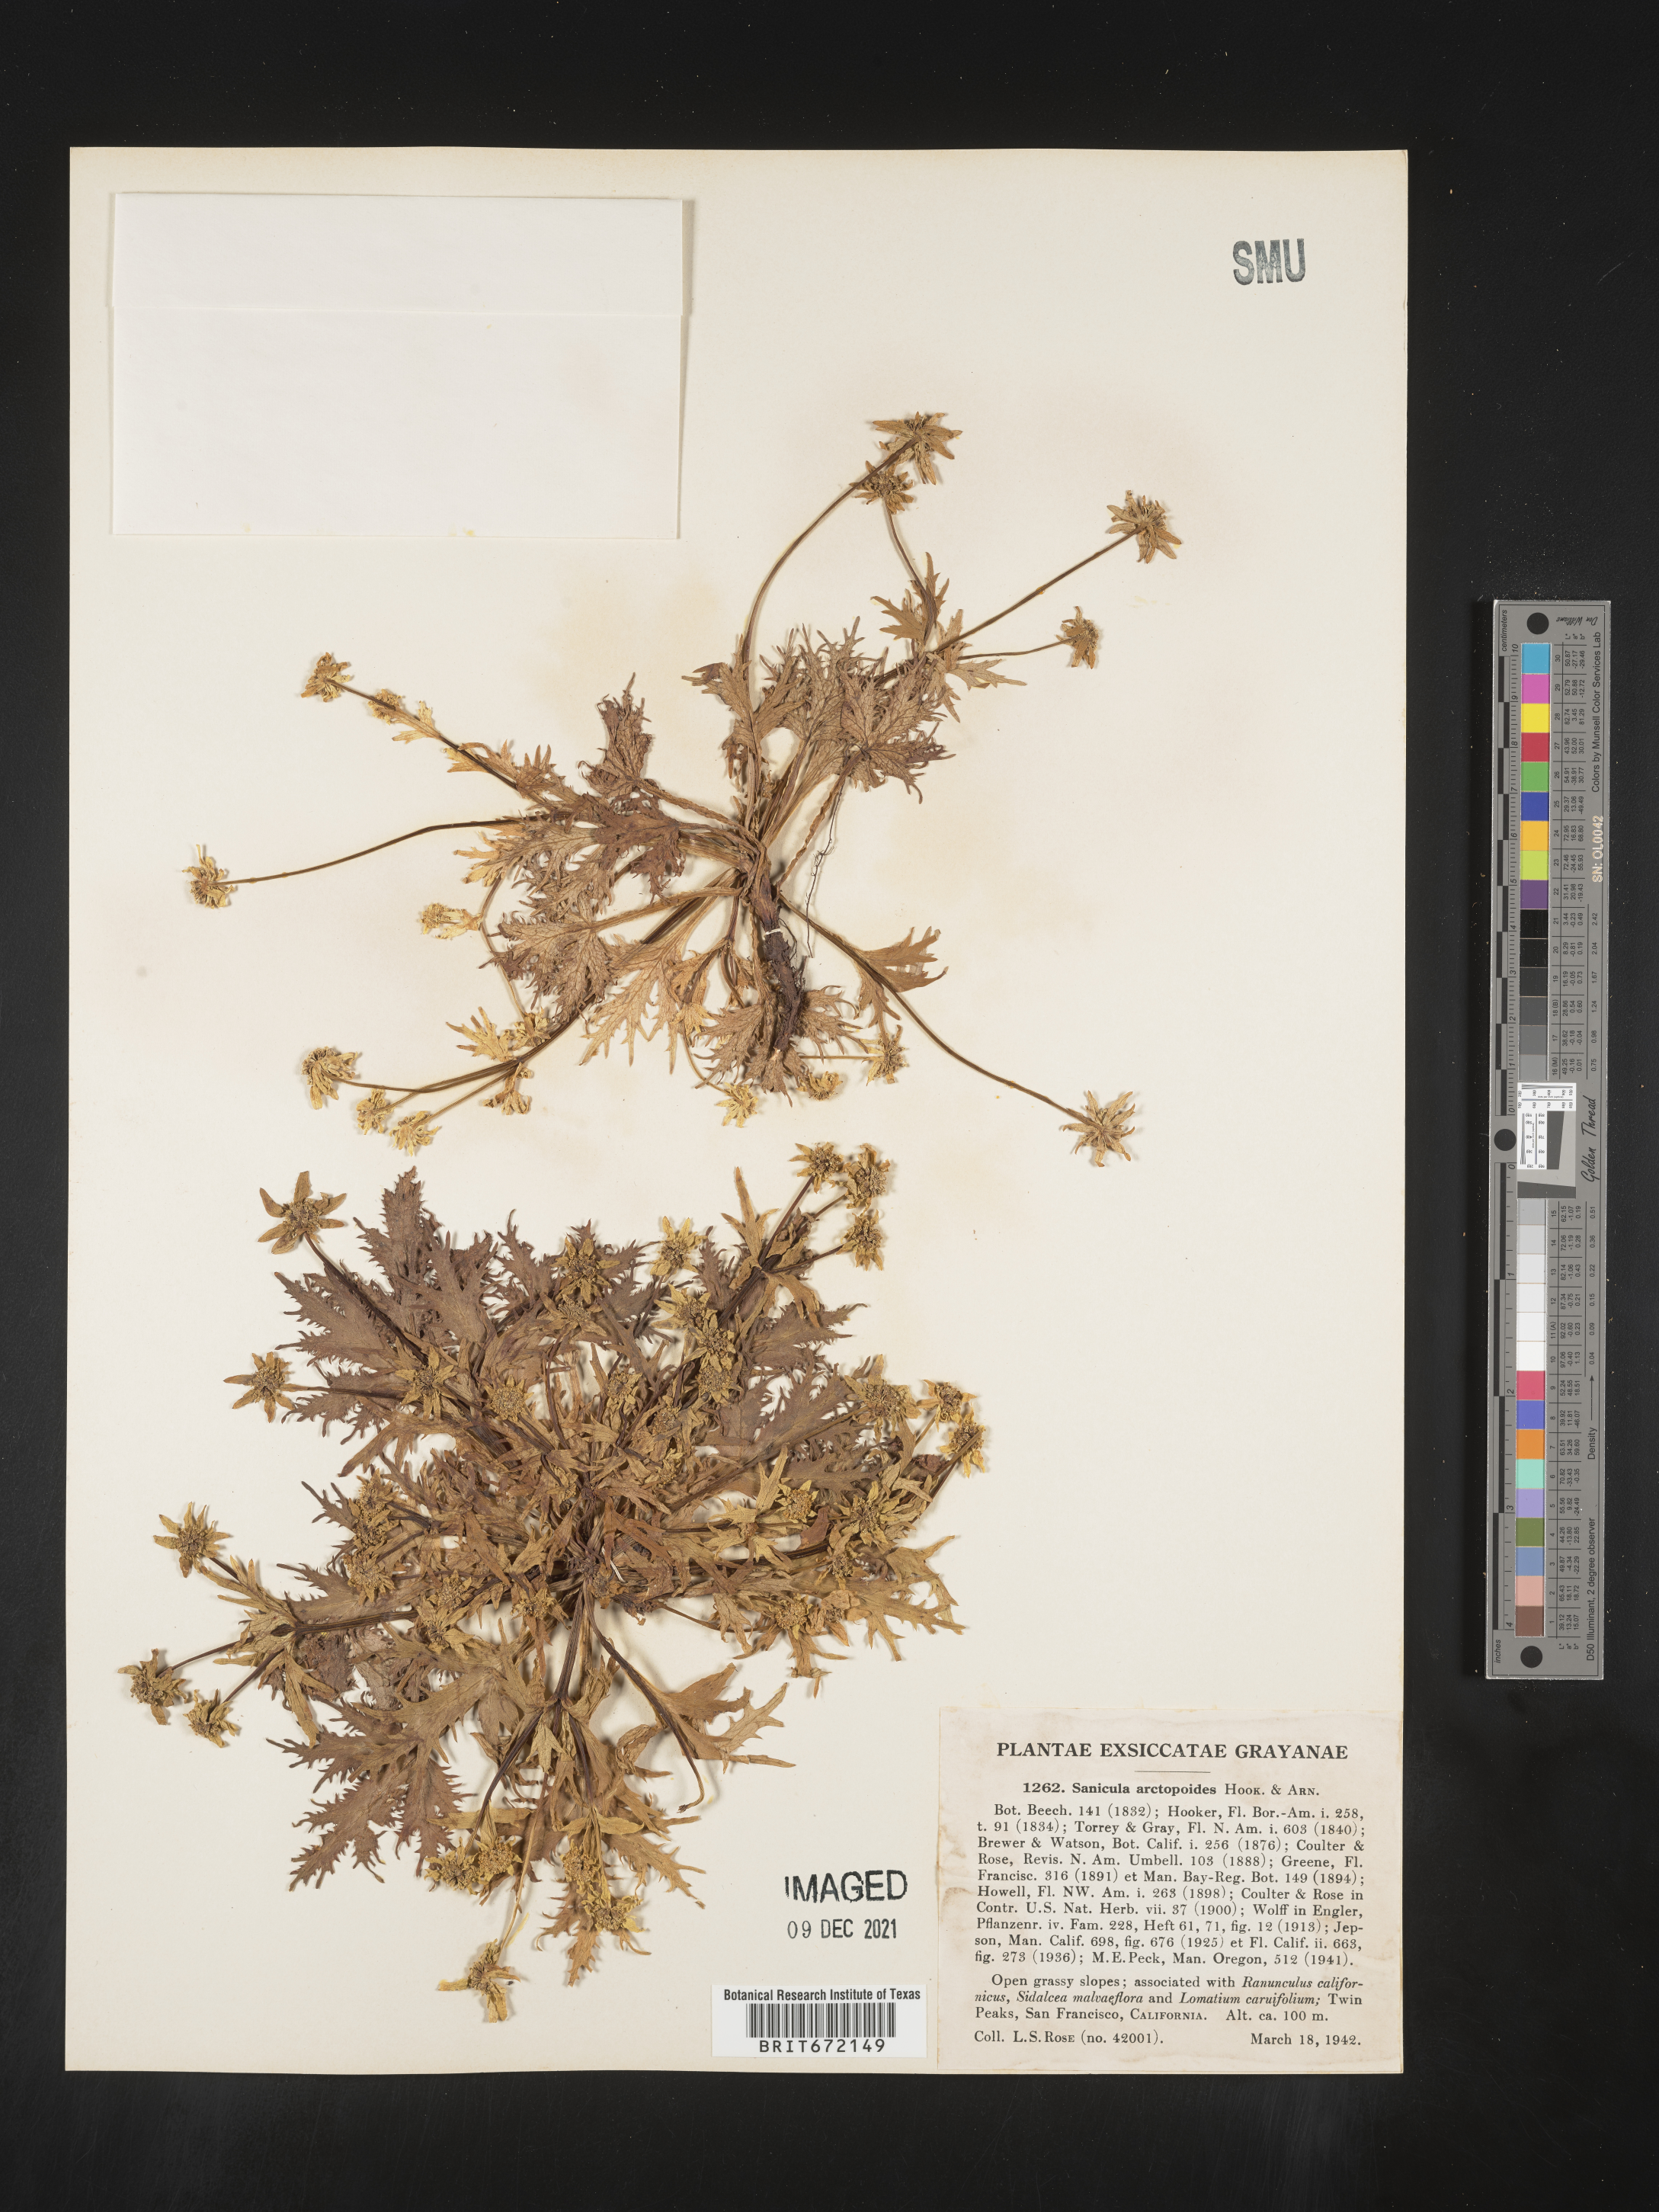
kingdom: Plantae
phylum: Tracheophyta
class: Magnoliopsida
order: Apiales
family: Apiaceae
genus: Sanicula
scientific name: Sanicula
